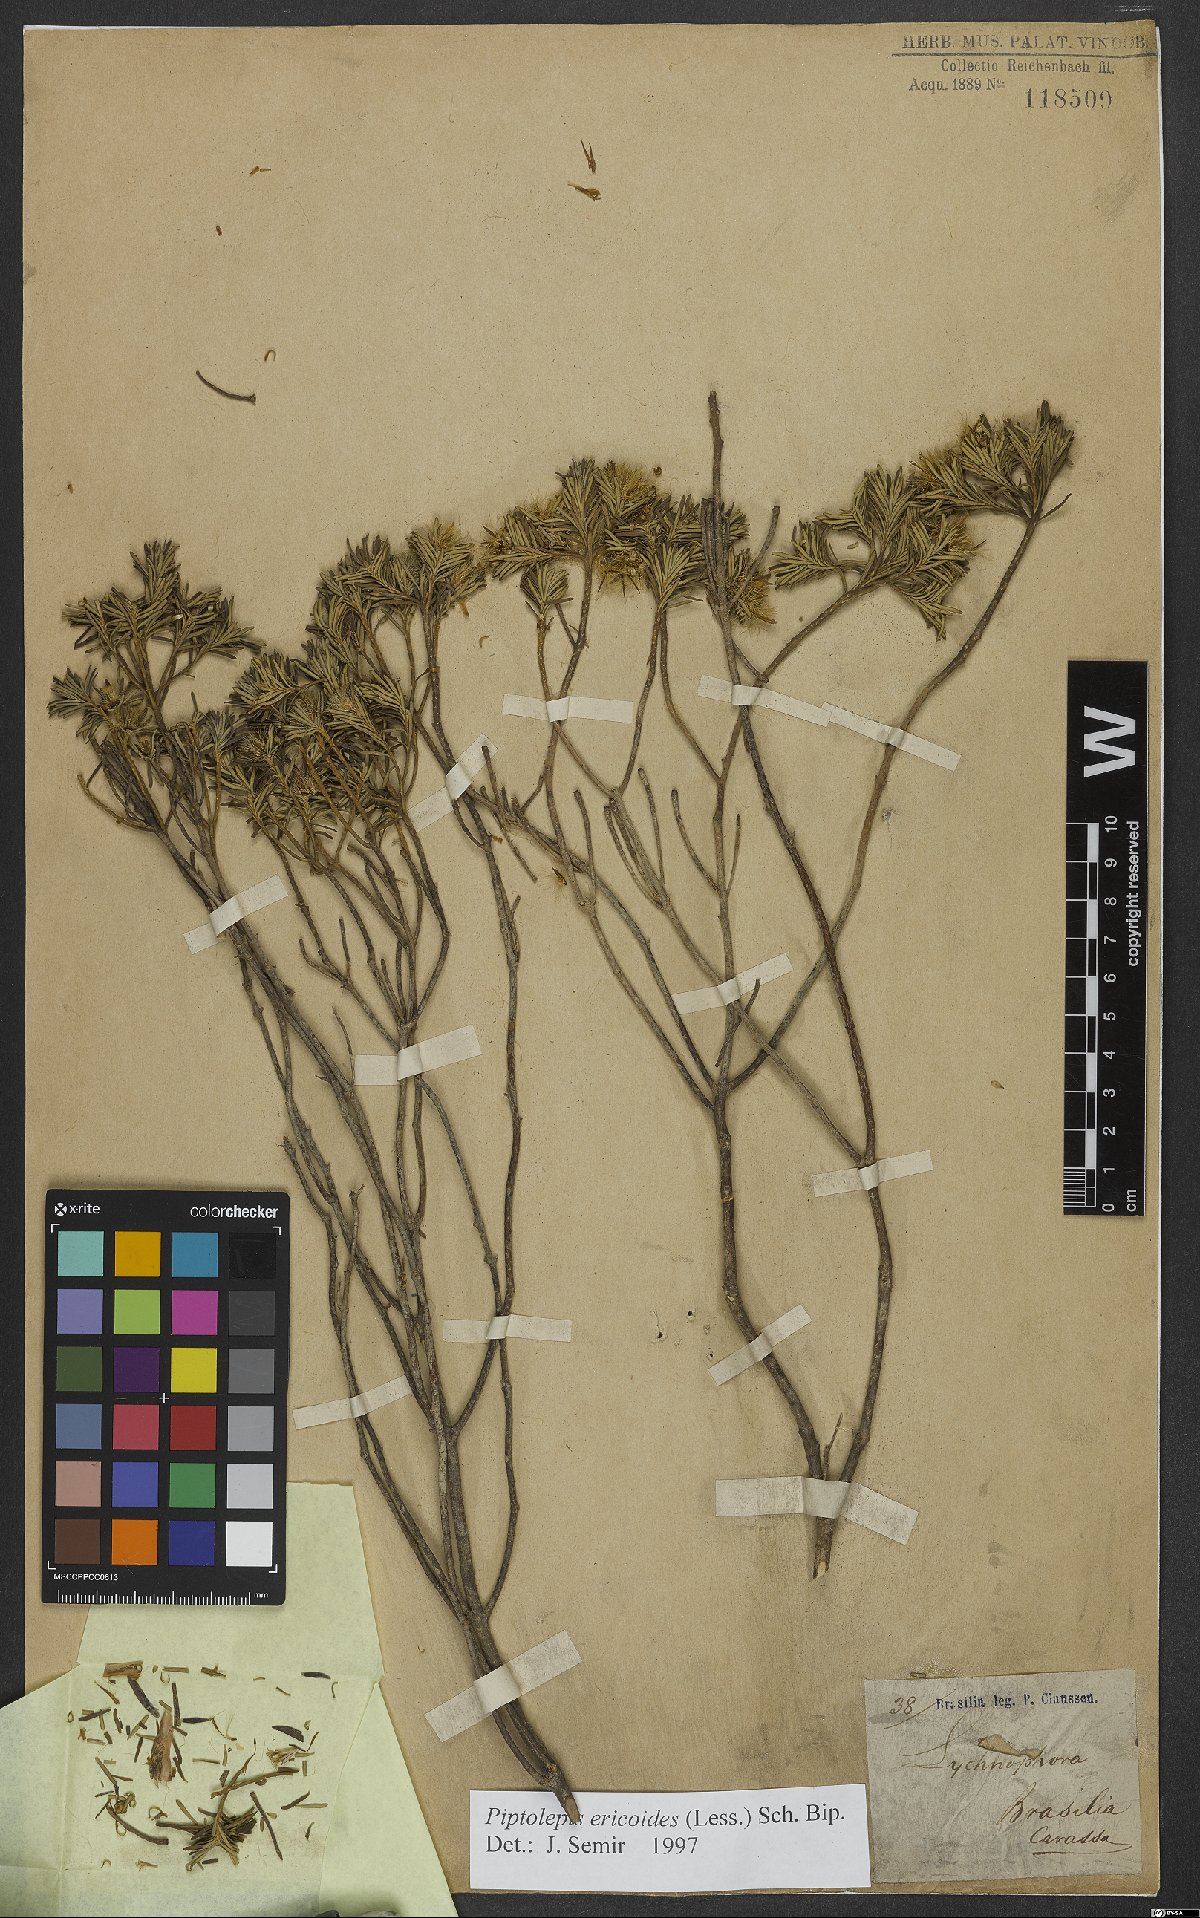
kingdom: Plantae
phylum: Tracheophyta
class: Magnoliopsida
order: Asterales
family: Asteraceae
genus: Piptolepis
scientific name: Piptolepis ericoides
